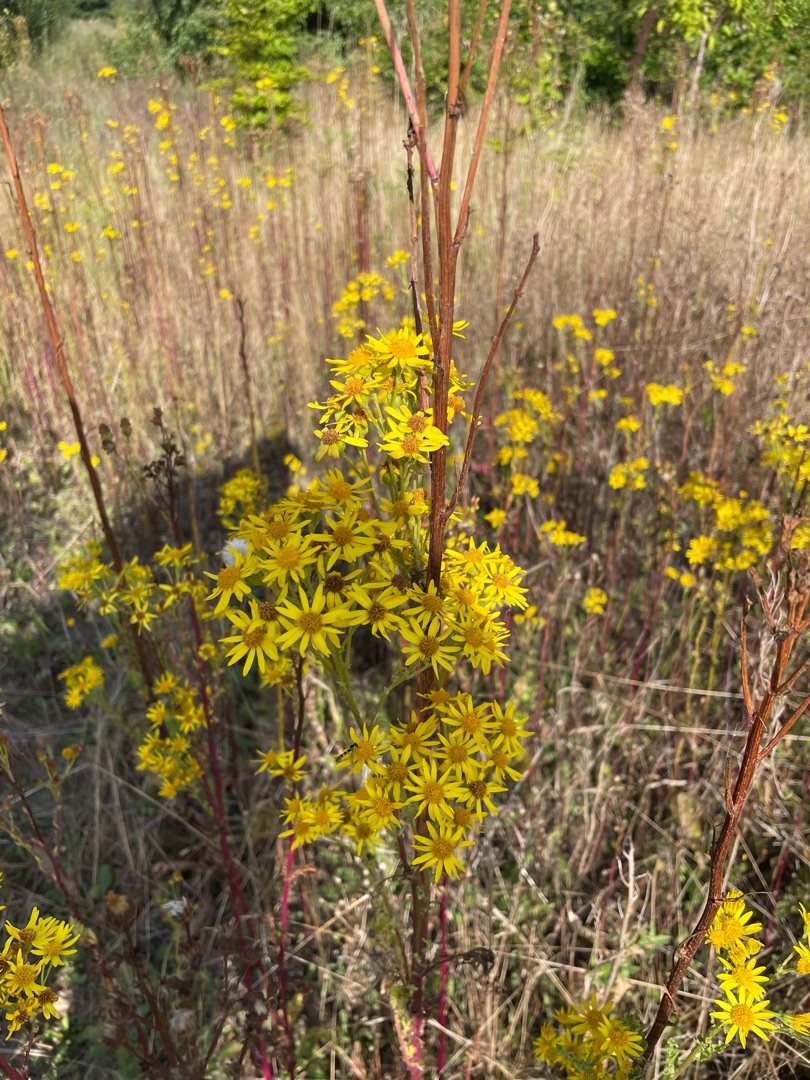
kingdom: Plantae
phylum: Tracheophyta
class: Magnoliopsida
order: Asterales
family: Asteraceae
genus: Jacobaea
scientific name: Jacobaea vulgaris
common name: Eng-brandbæger
